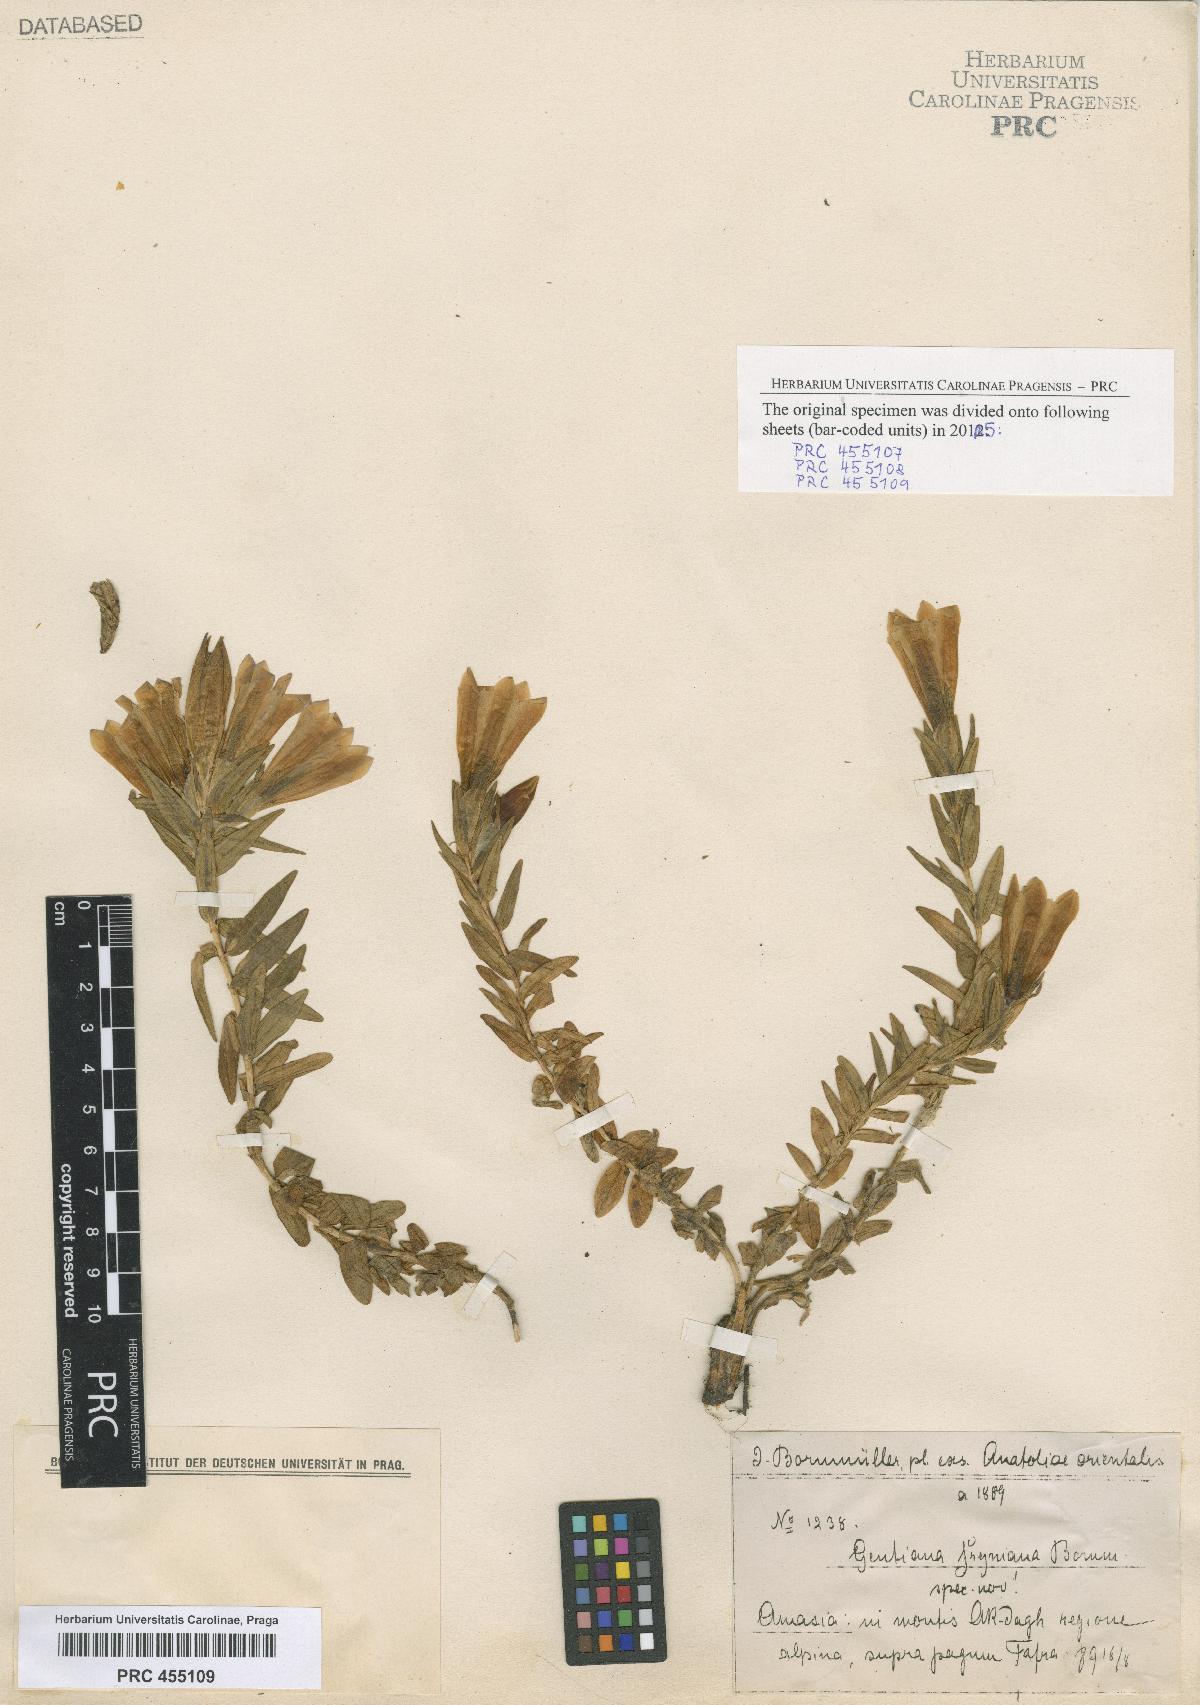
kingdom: Plantae
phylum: Tracheophyta
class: Magnoliopsida
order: Gentianales
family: Gentianaceae
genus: Gentiana
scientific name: Gentiana septemfida
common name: Crested gentian
